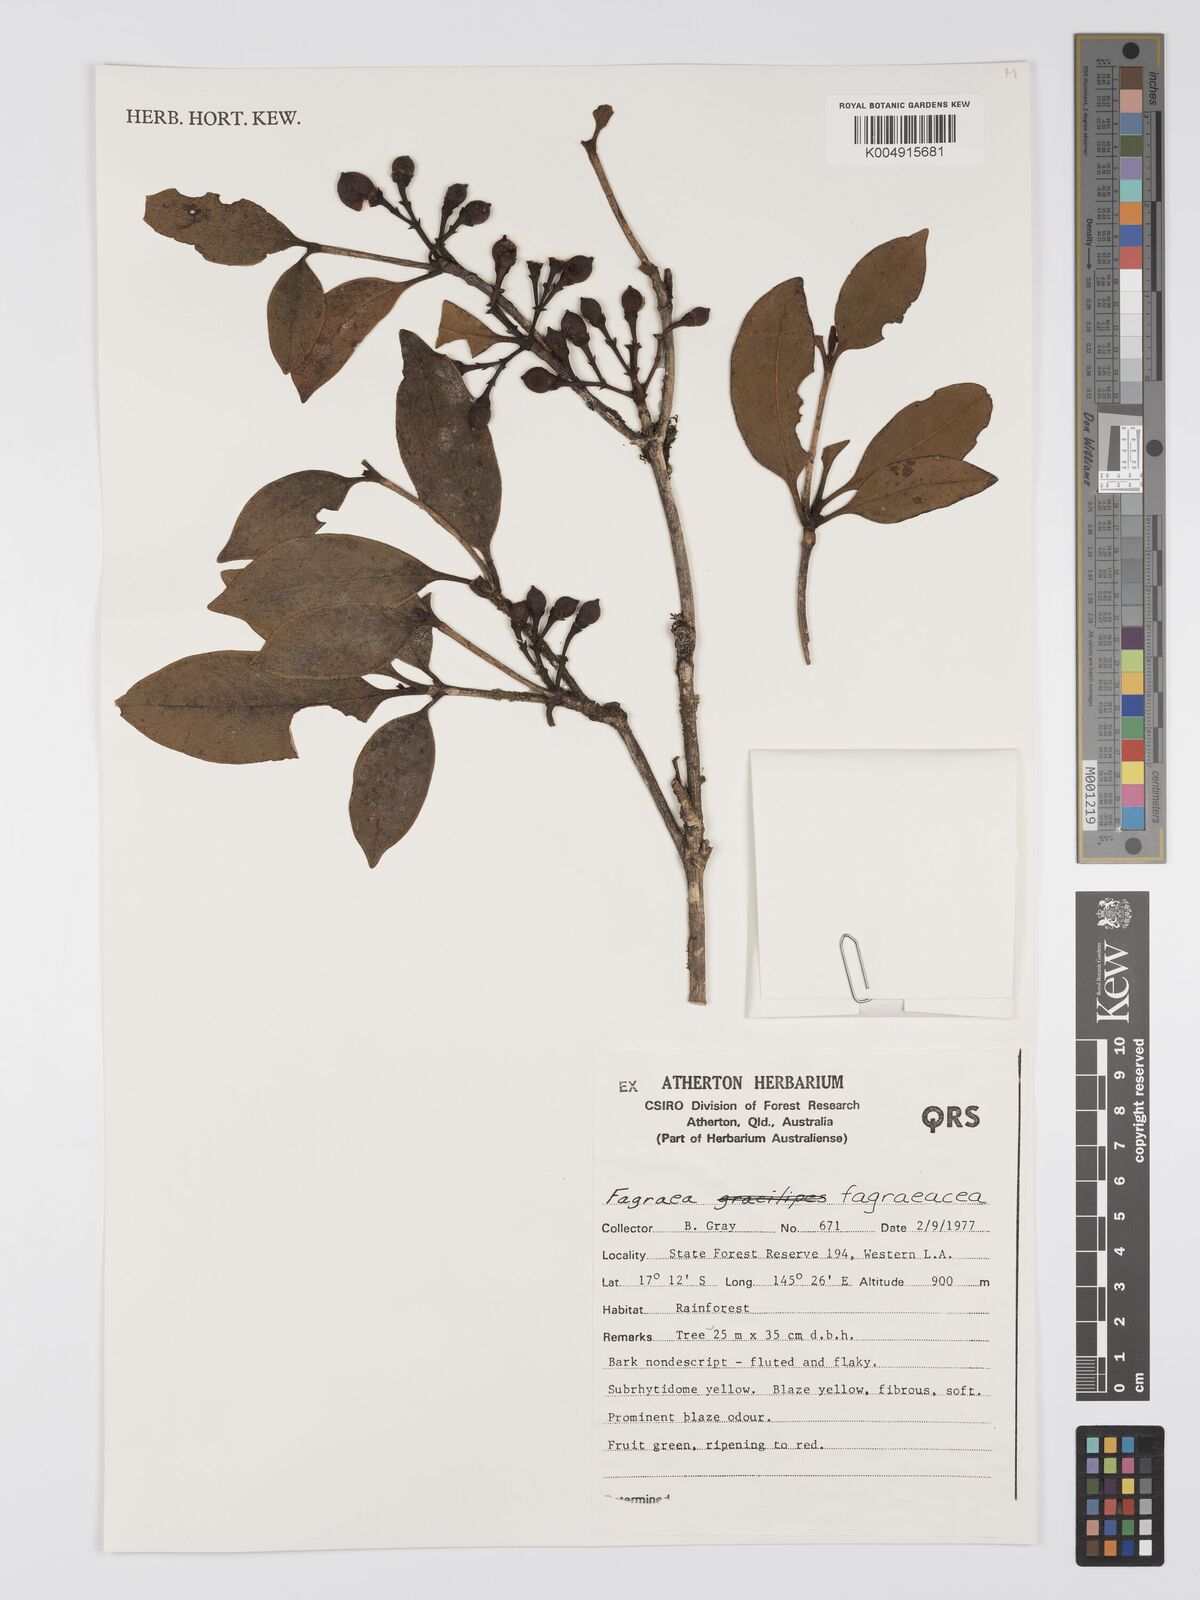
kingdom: Plantae
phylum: Tracheophyta
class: Magnoliopsida
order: Gentianales
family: Gentianaceae
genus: Fagraea
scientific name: Fagraea
